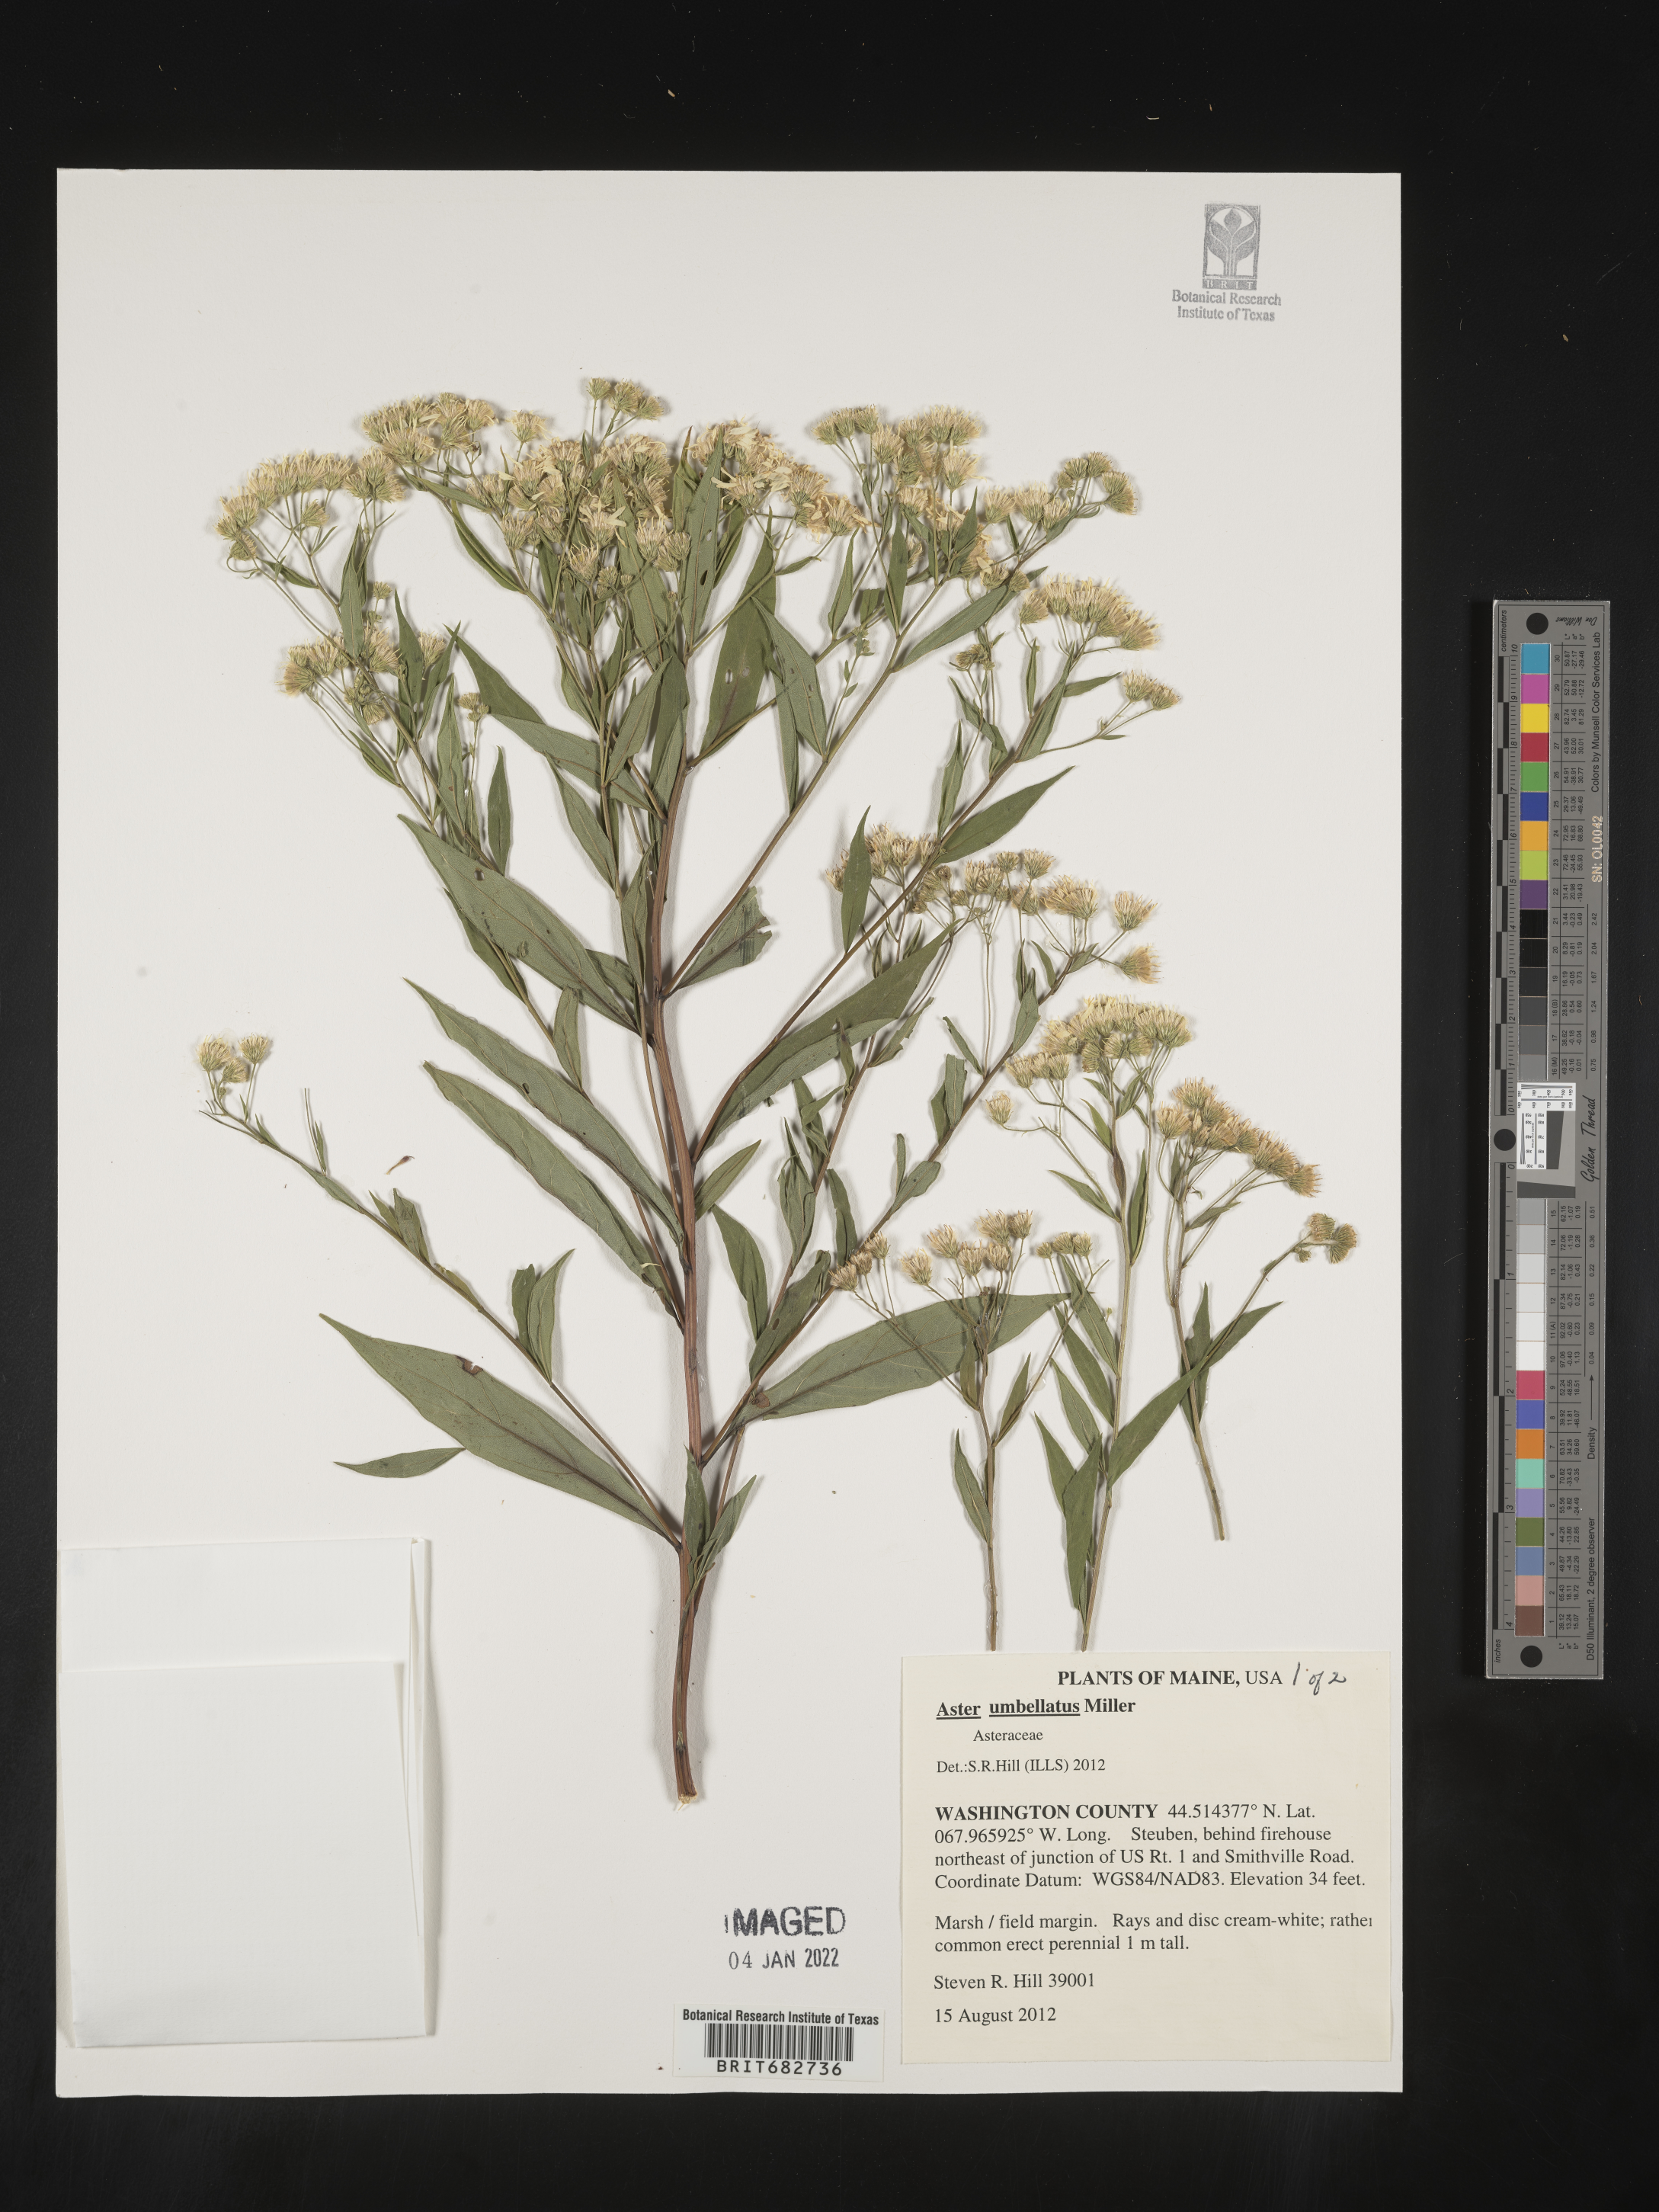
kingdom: Plantae
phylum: Tracheophyta
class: Magnoliopsida
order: Asterales
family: Asteraceae
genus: Aster
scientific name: Aster
